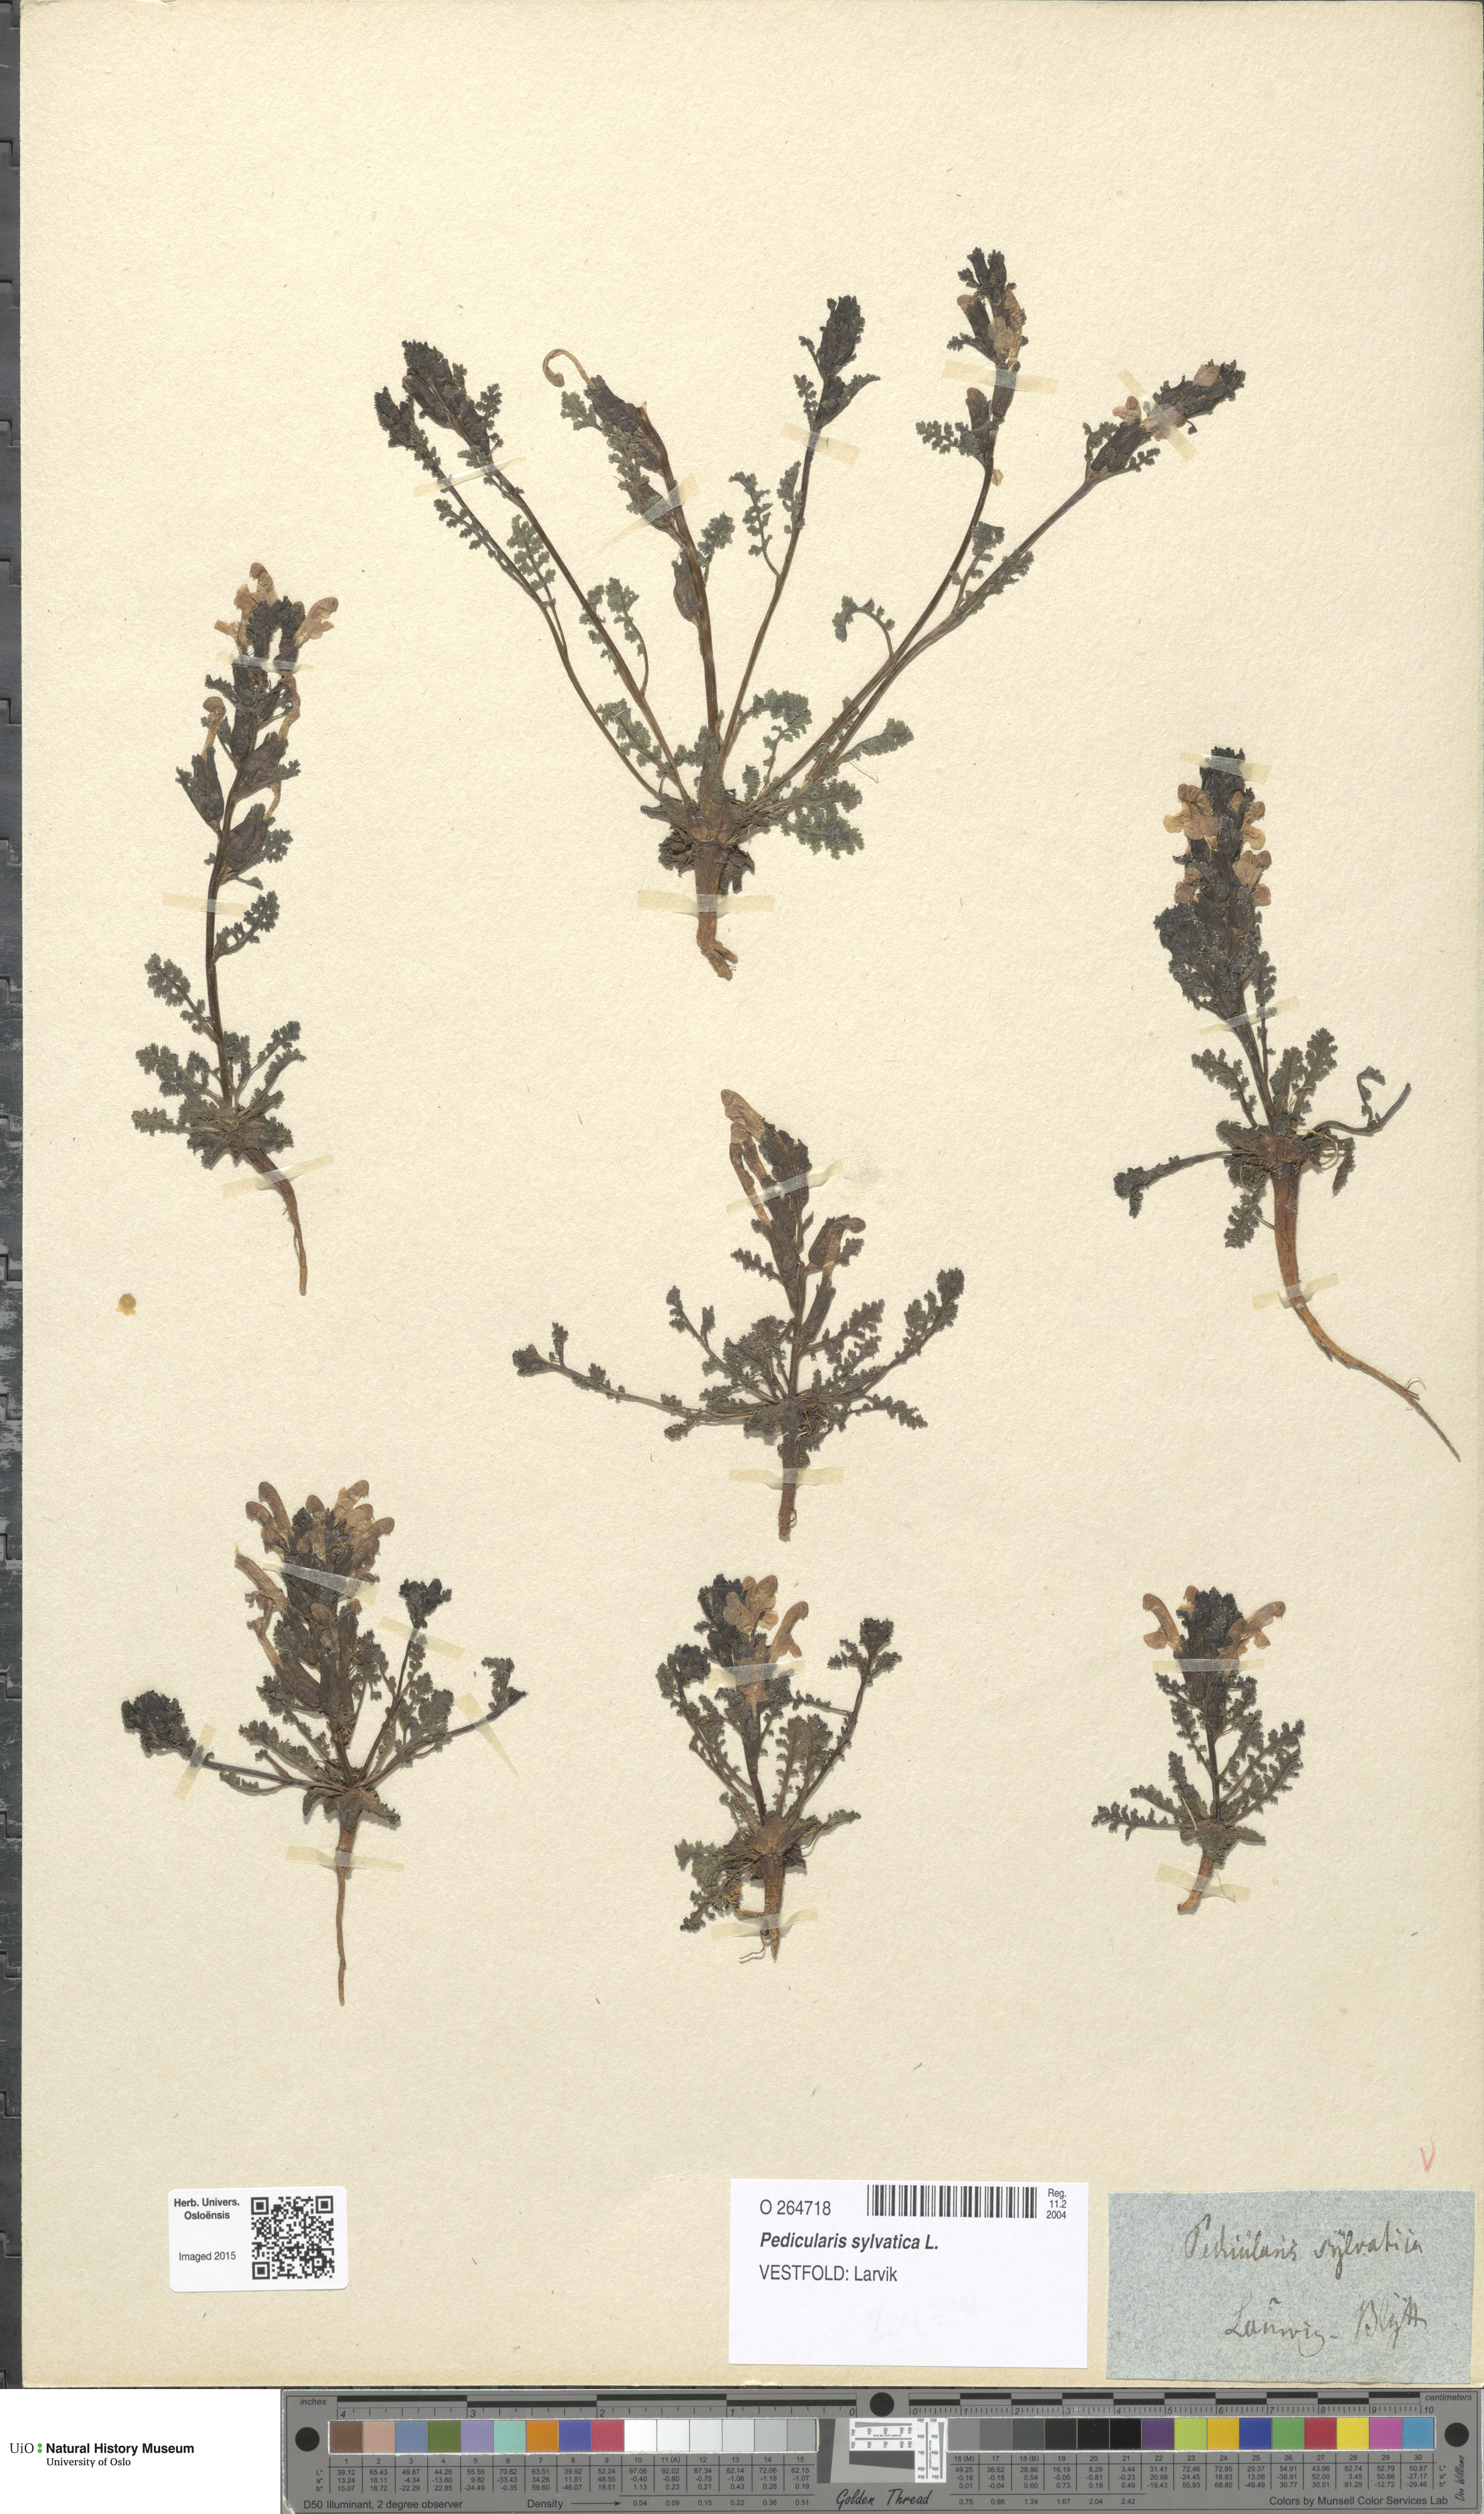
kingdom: Plantae
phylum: Tracheophyta
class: Magnoliopsida
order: Lamiales
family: Orobanchaceae
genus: Pedicularis
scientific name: Pedicularis sylvatica
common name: Lousewort
